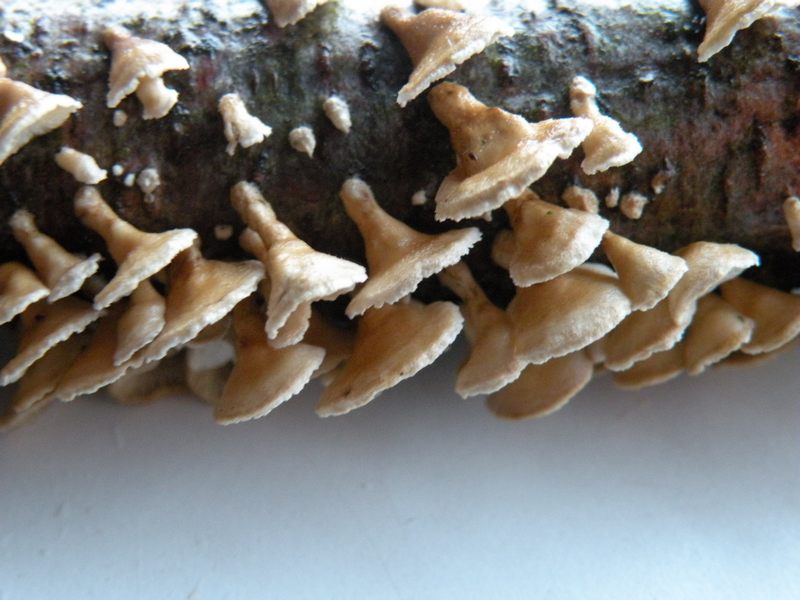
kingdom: Fungi
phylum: Basidiomycota
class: Agaricomycetes
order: Amylocorticiales
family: Amylocorticiaceae
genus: Plicaturopsis
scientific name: Plicaturopsis crispa
